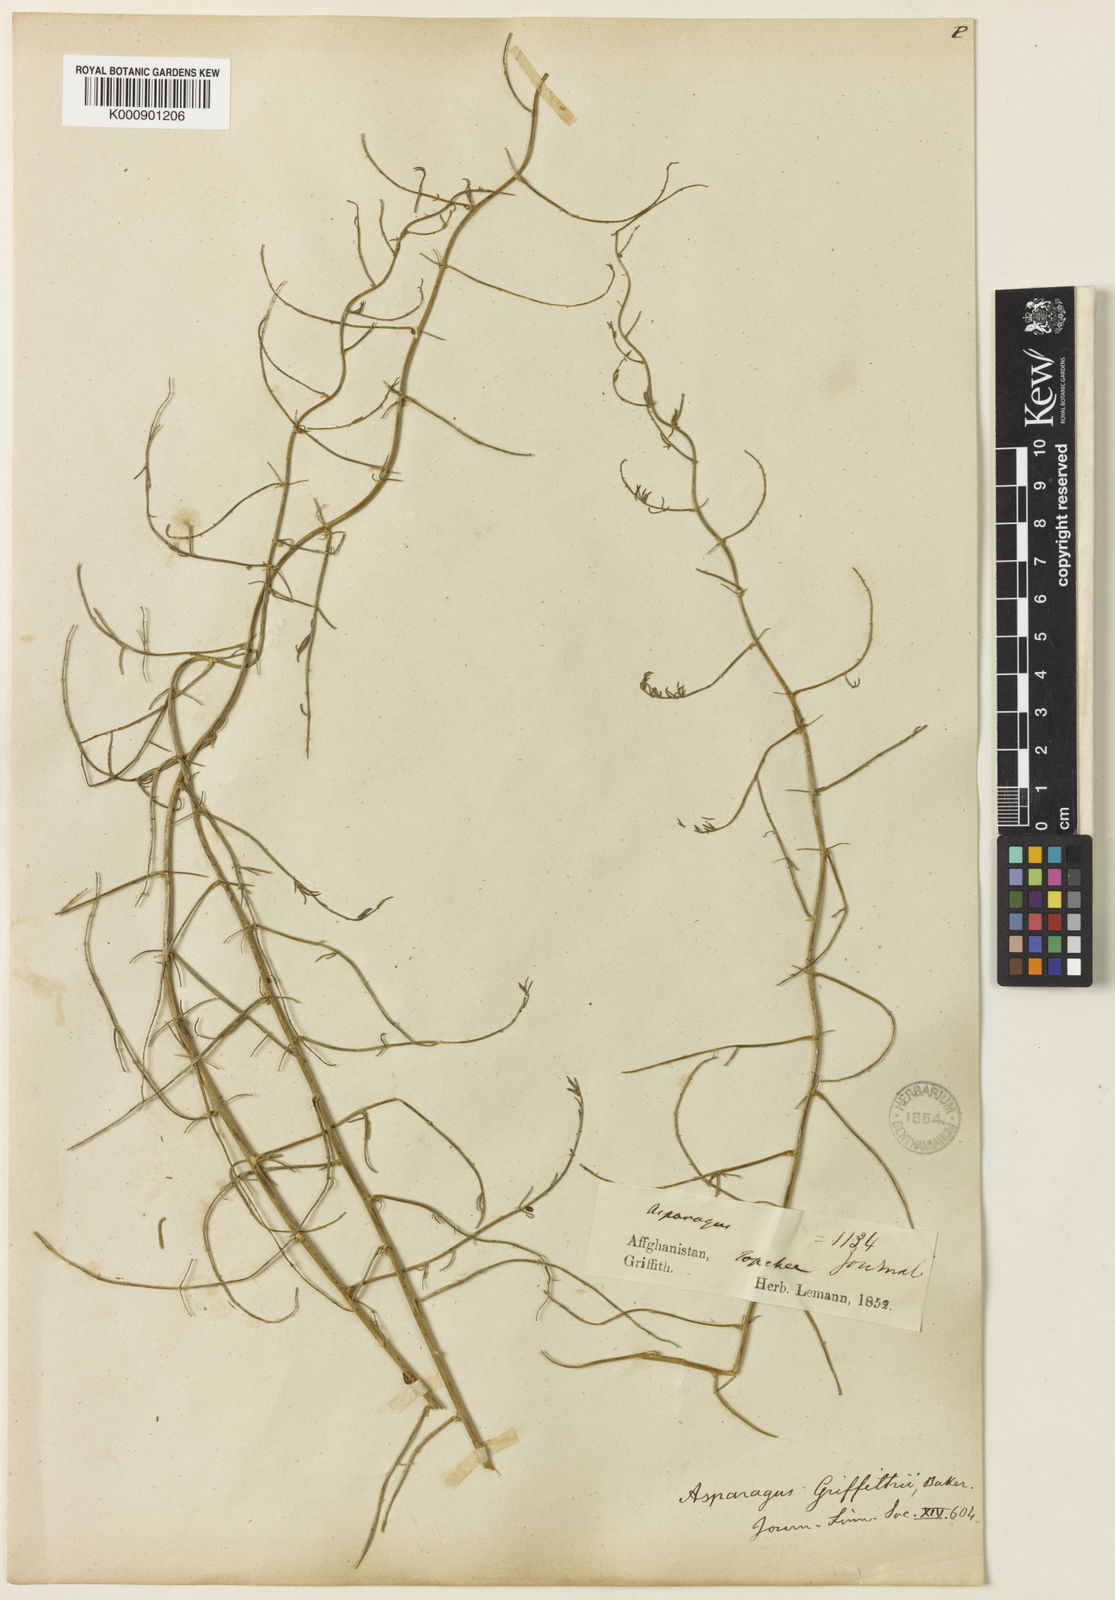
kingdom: Plantae
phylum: Tracheophyta
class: Liliopsida
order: Asparagales
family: Asparagaceae
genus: Asparagus
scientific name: Asparagus griffithii
